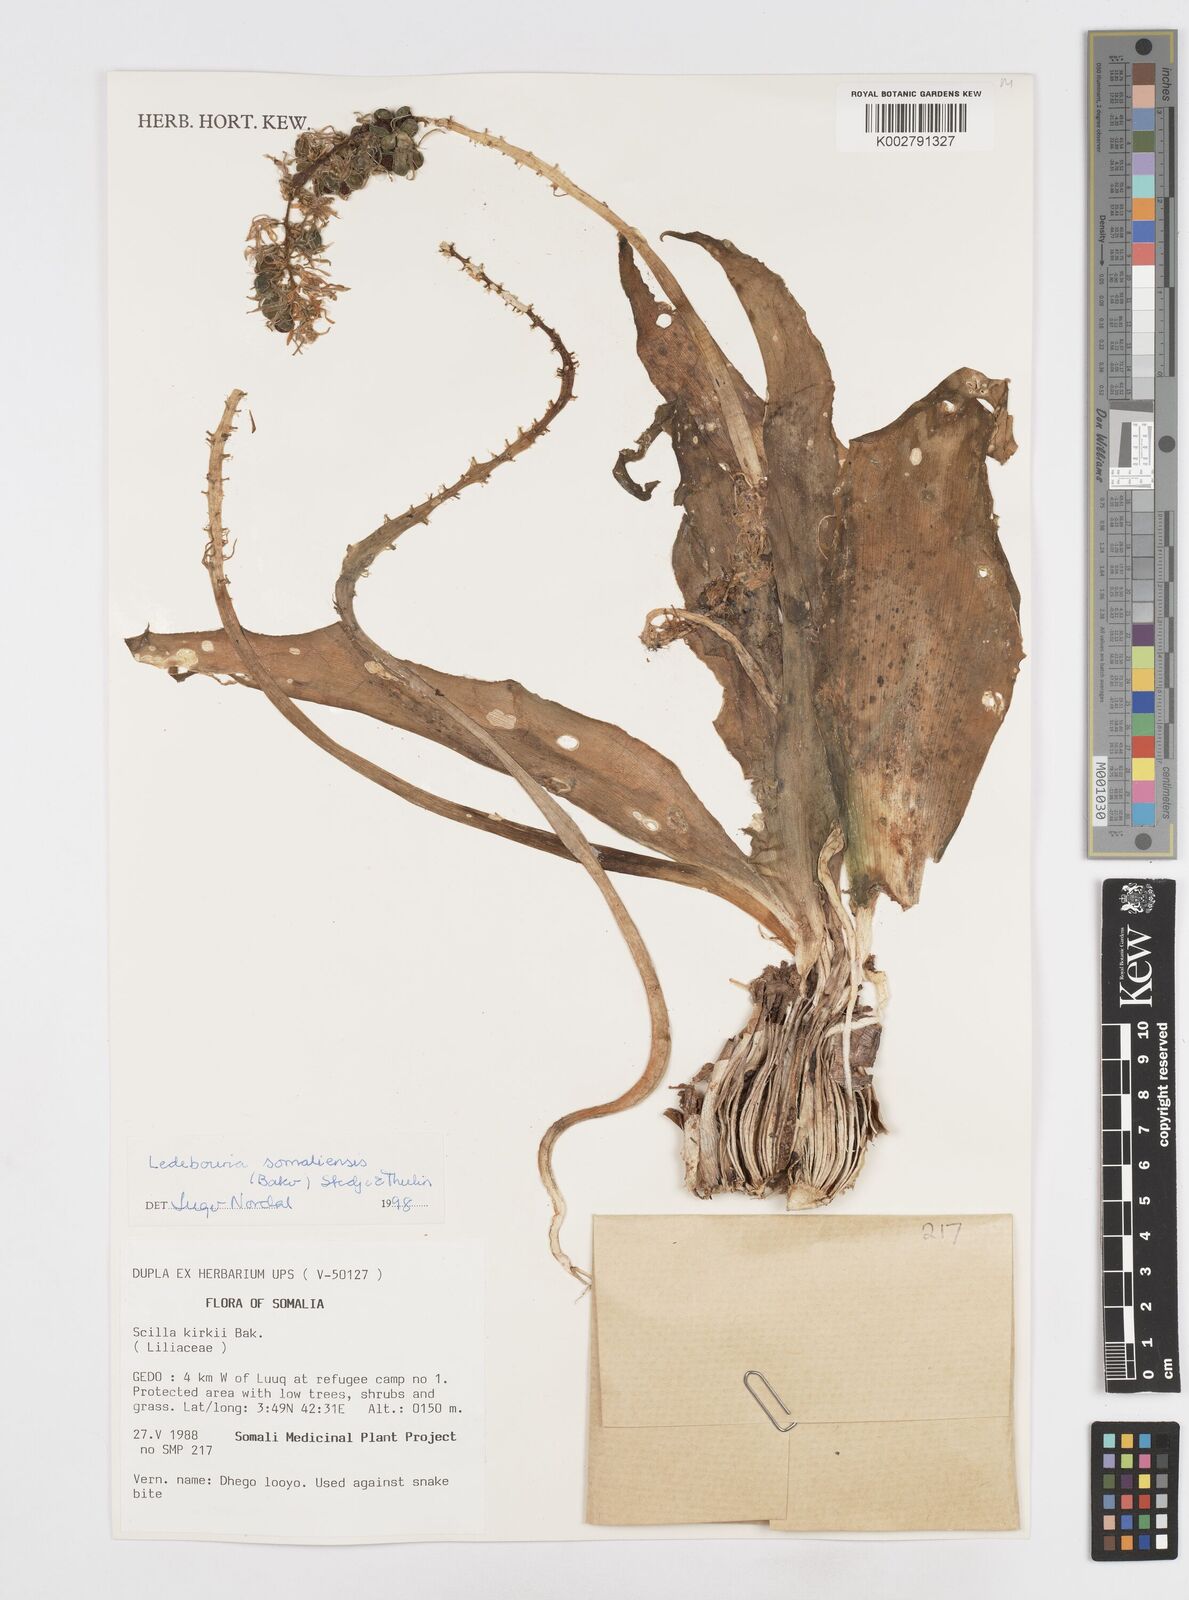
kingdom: Plantae
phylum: Tracheophyta
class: Liliopsida
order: Asparagales
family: Asparagaceae
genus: Scilla
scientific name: Scilla
